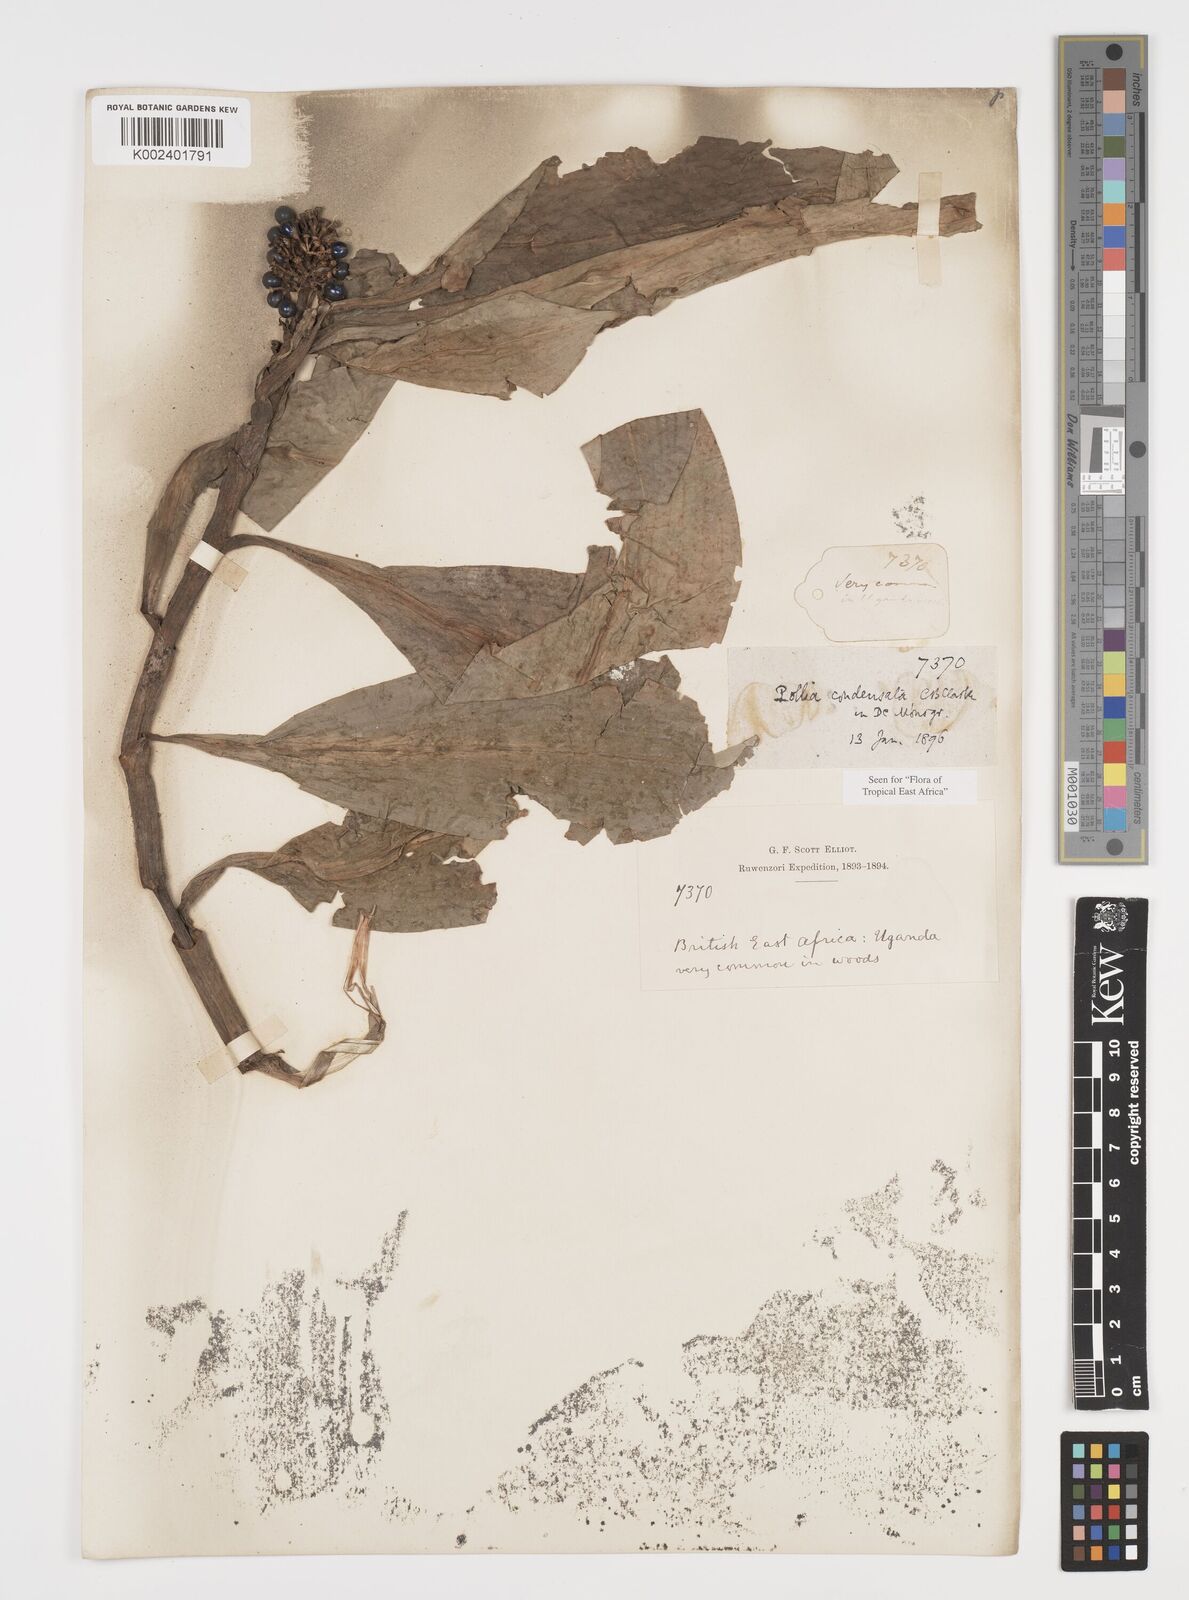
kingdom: Plantae
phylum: Tracheophyta
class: Liliopsida
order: Commelinales
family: Commelinaceae
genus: Pollia
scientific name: Pollia condensata
